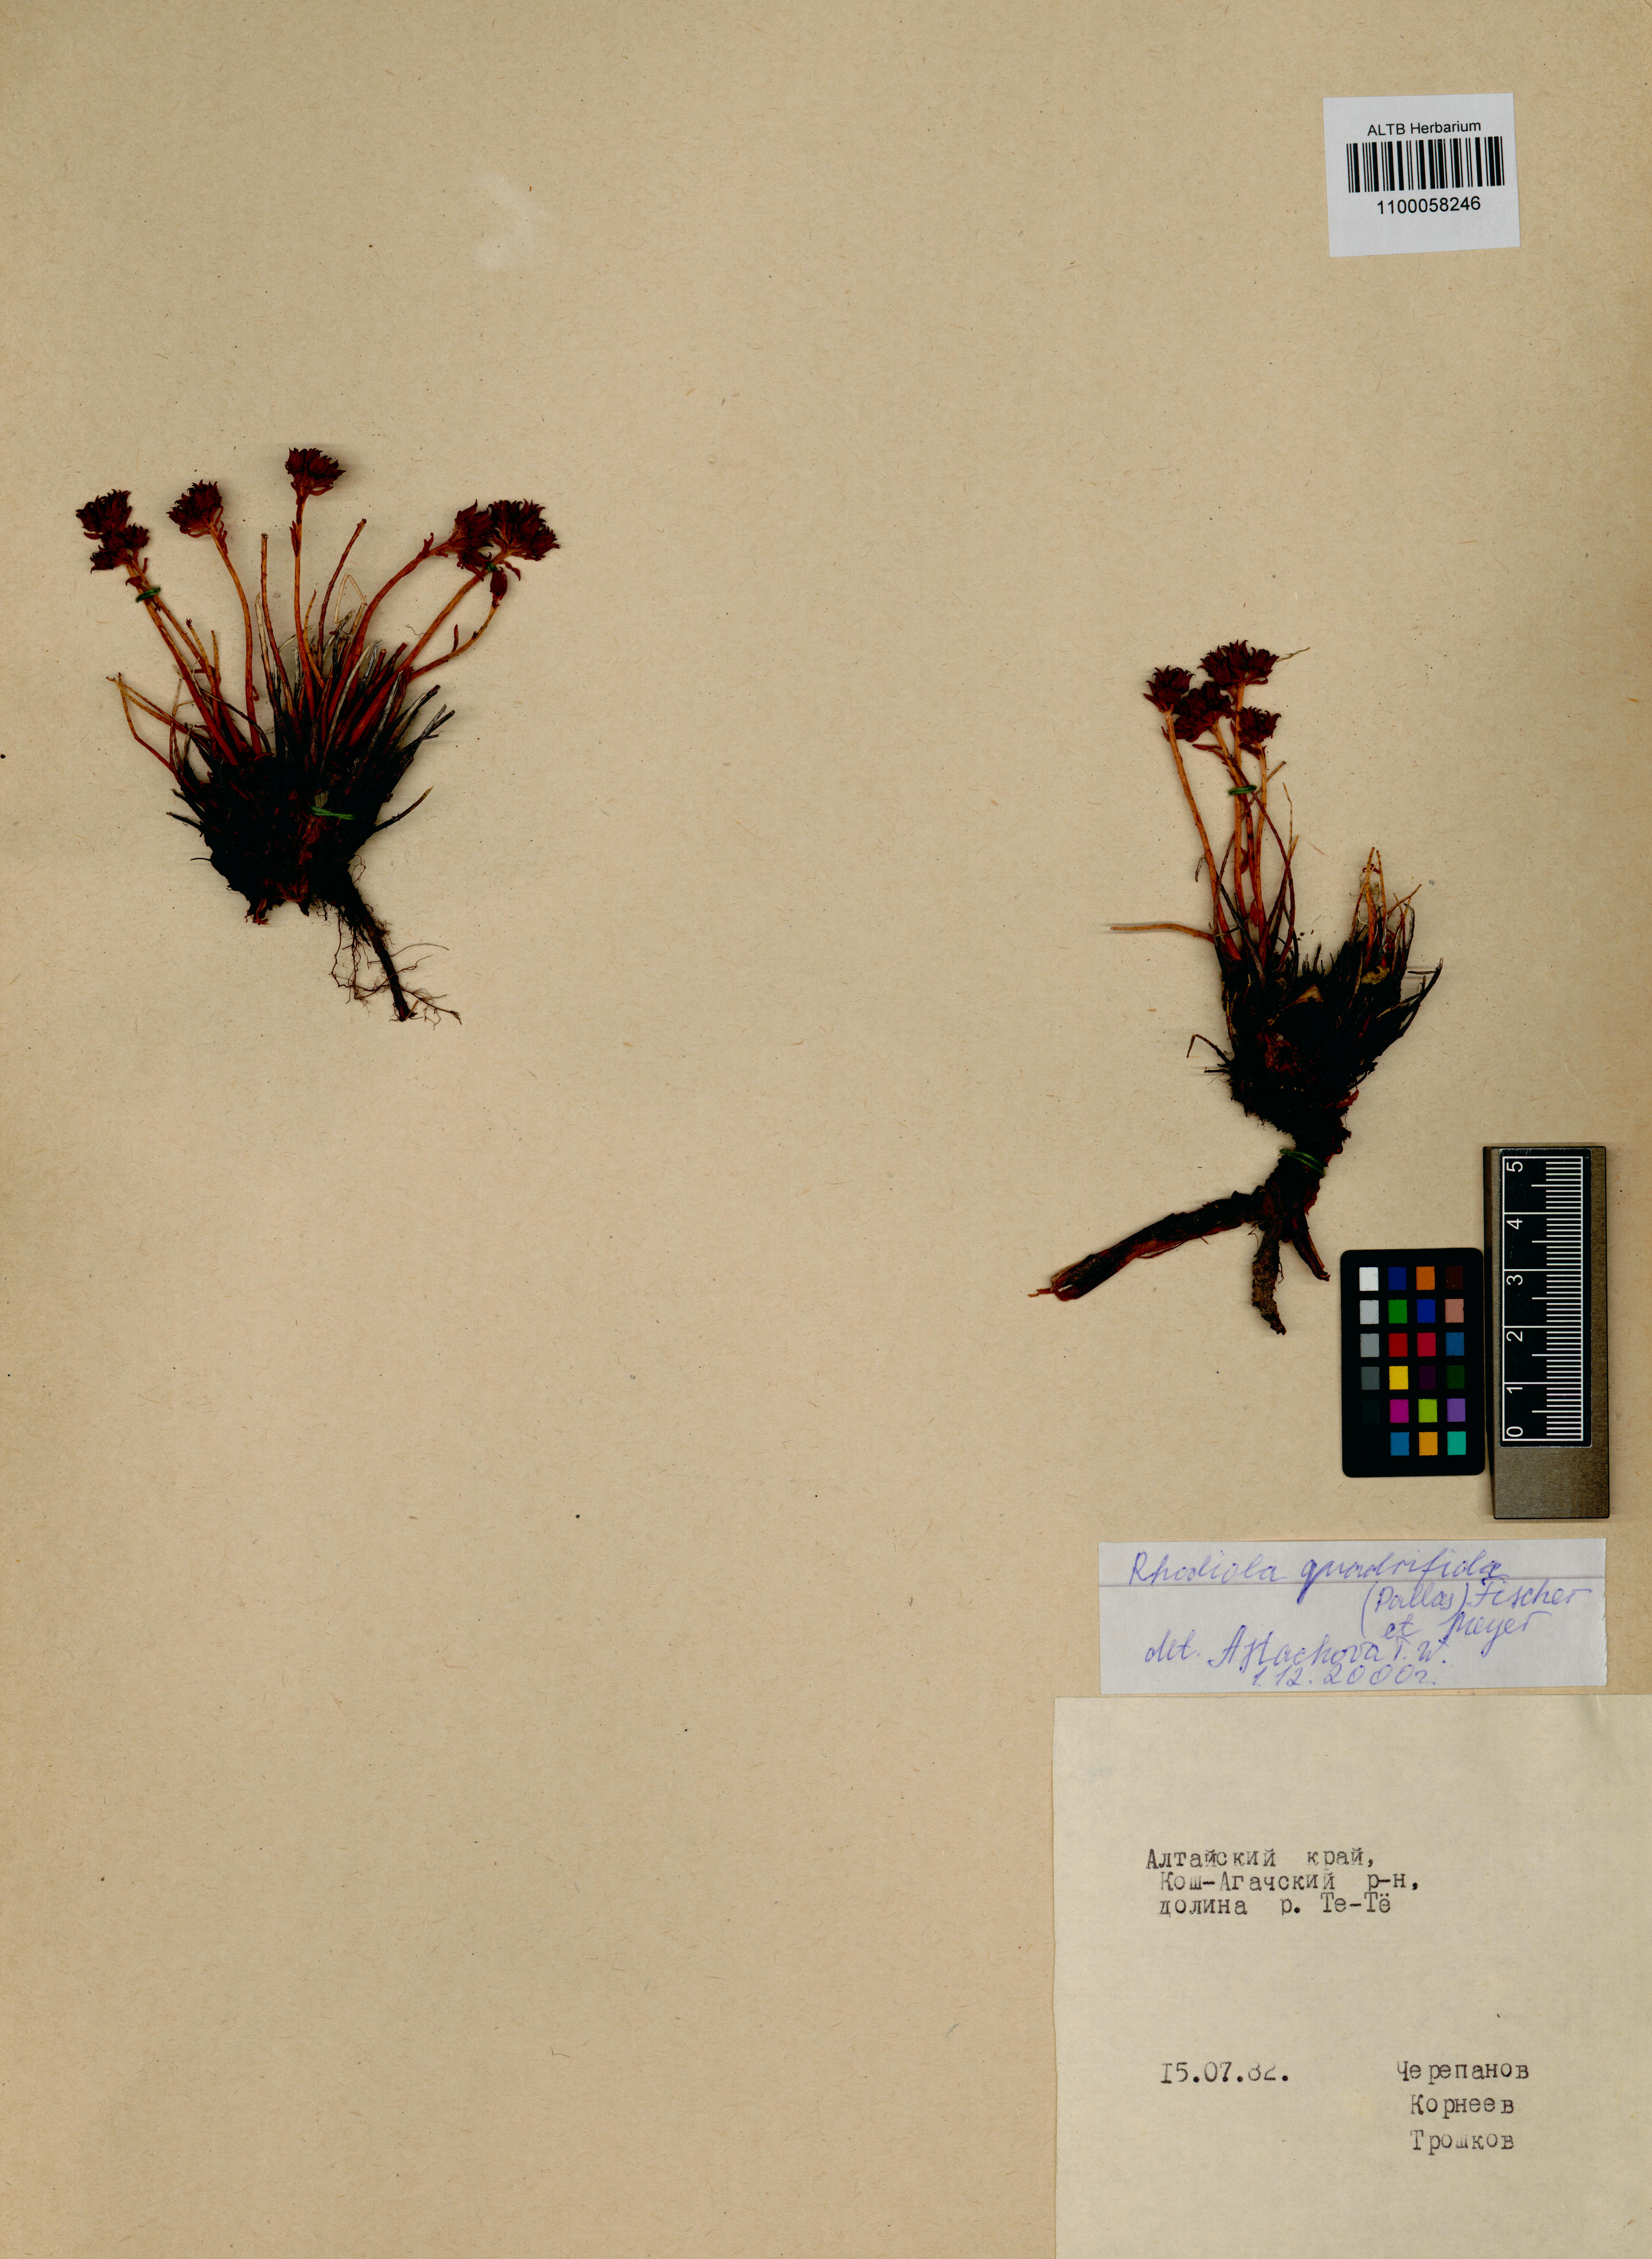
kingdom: Plantae
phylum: Tracheophyta
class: Magnoliopsida
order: Saxifragales
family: Crassulaceae
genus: Rhodiola
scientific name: Rhodiola quadrifida
